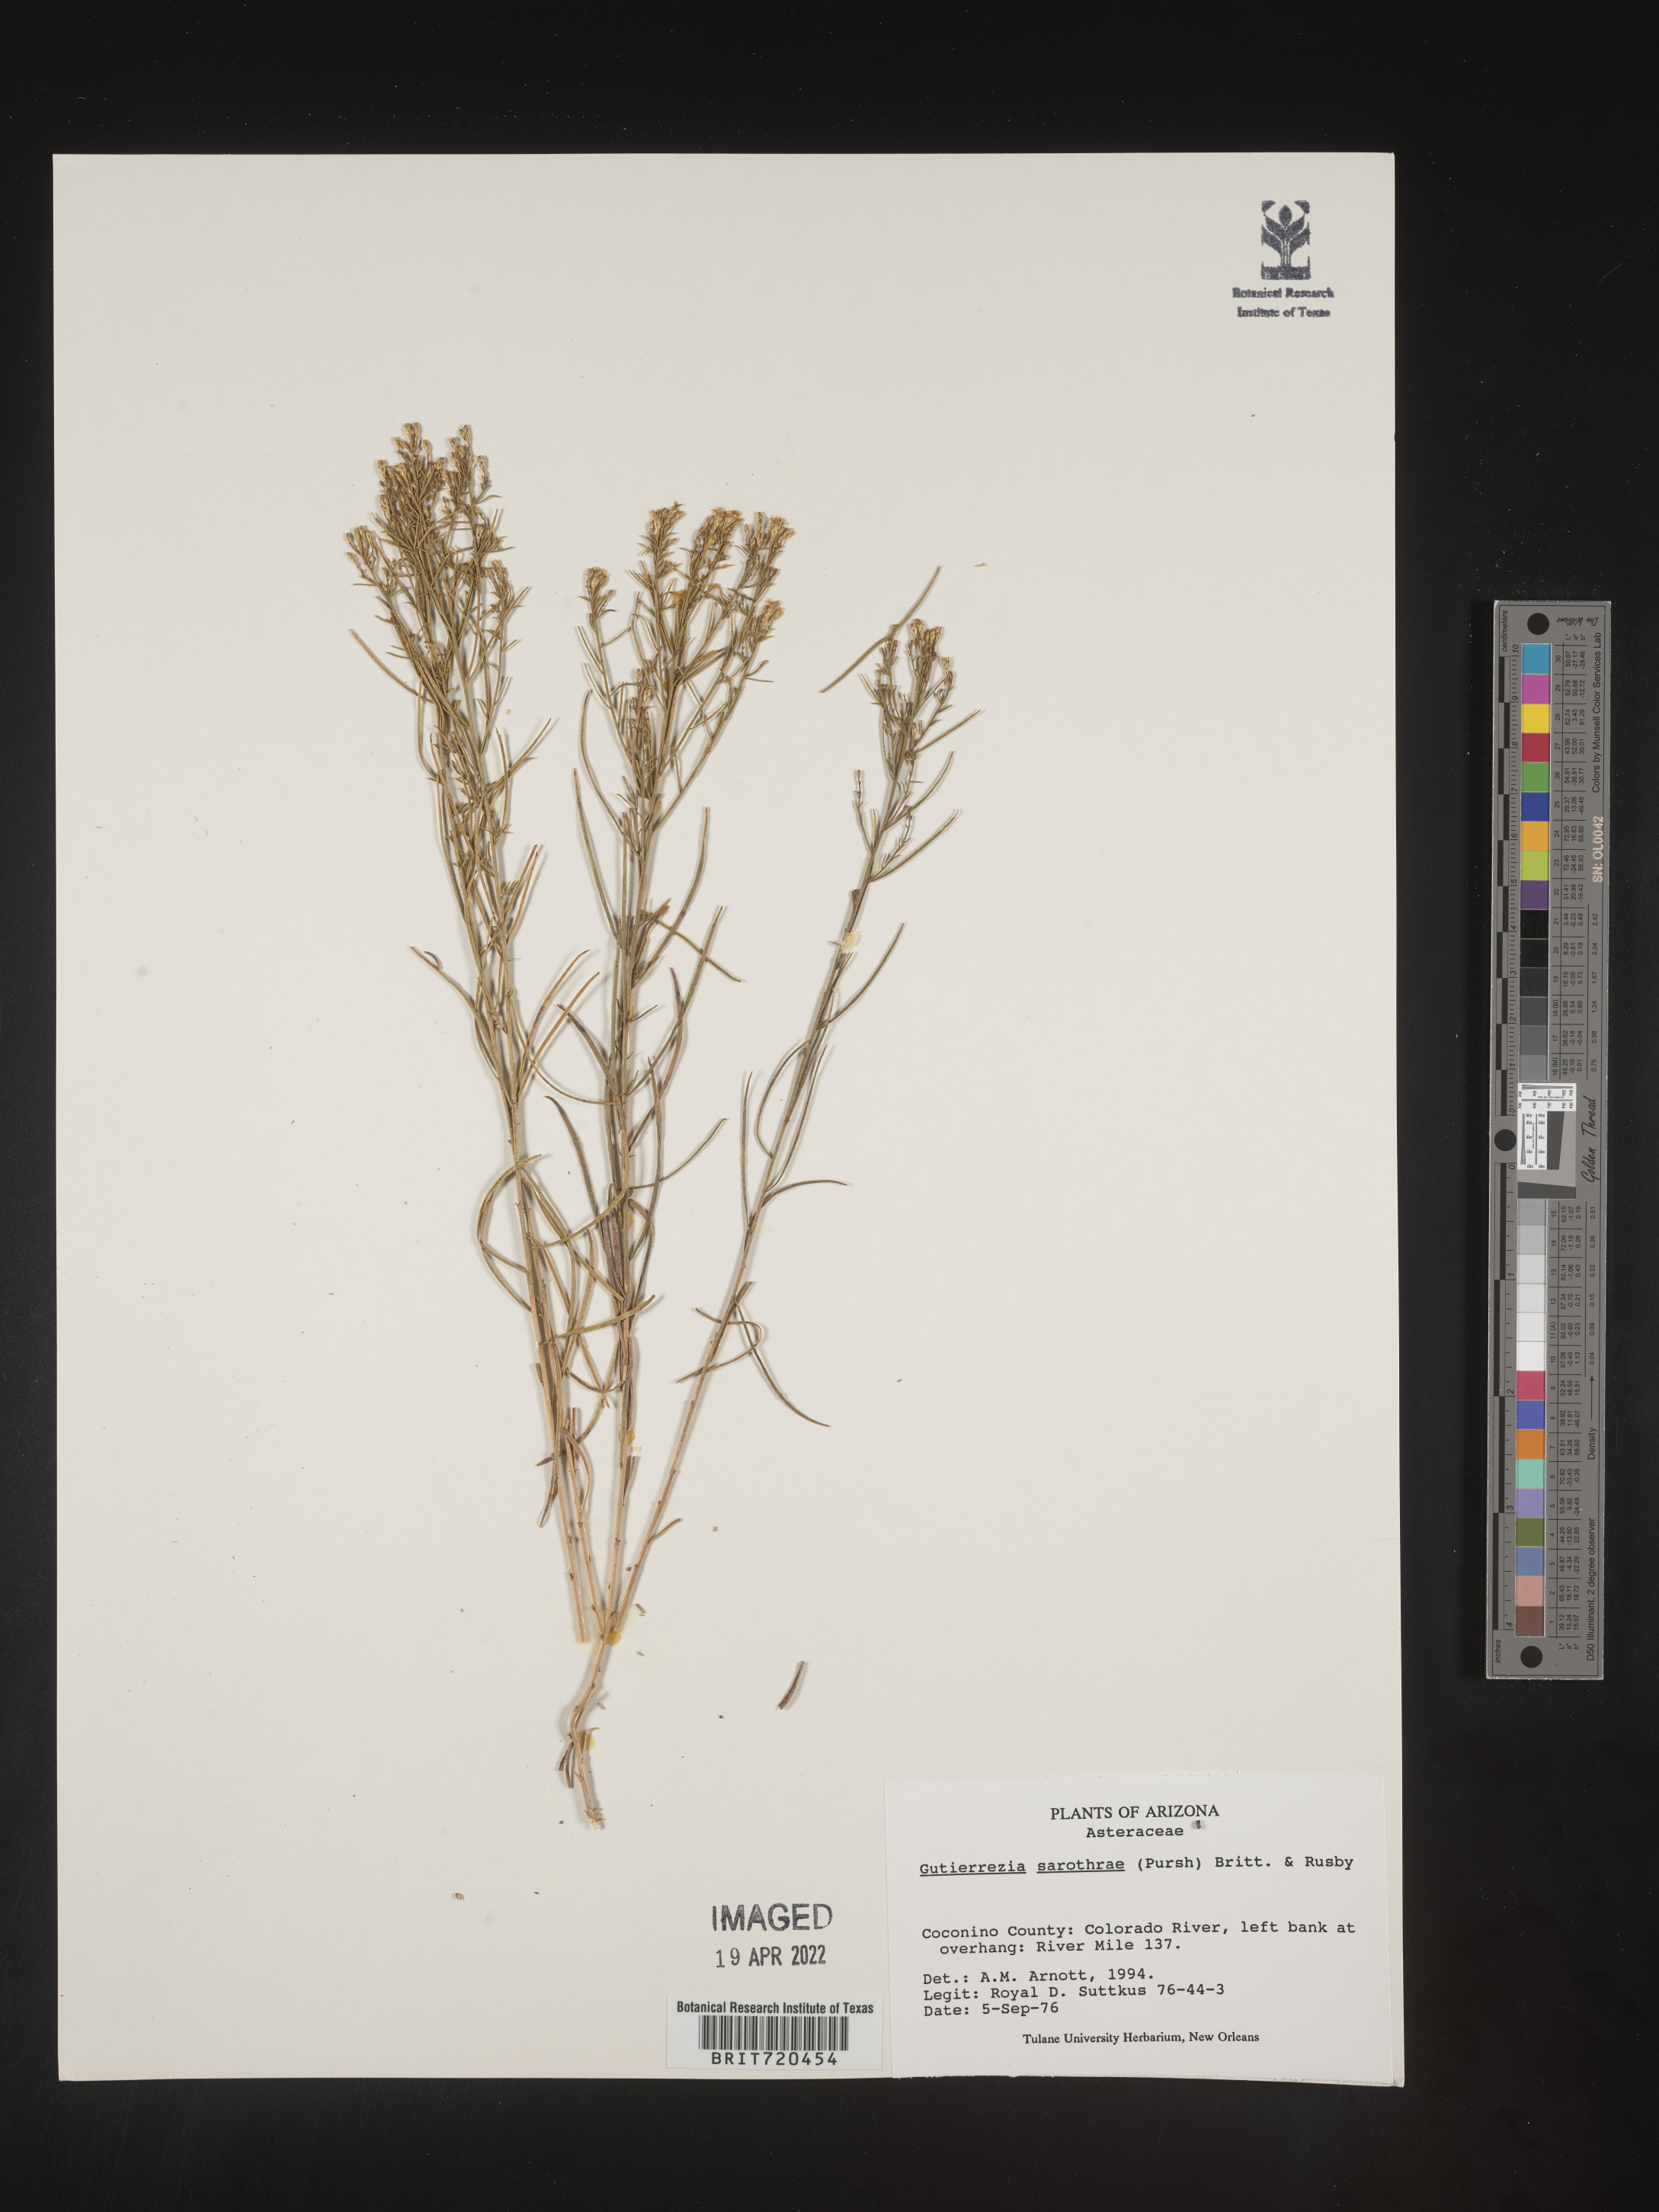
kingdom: Plantae
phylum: Tracheophyta
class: Magnoliopsida
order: Asterales
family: Asteraceae
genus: Gutierrezia
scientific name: Gutierrezia sarothrae
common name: Broom snakeweed
